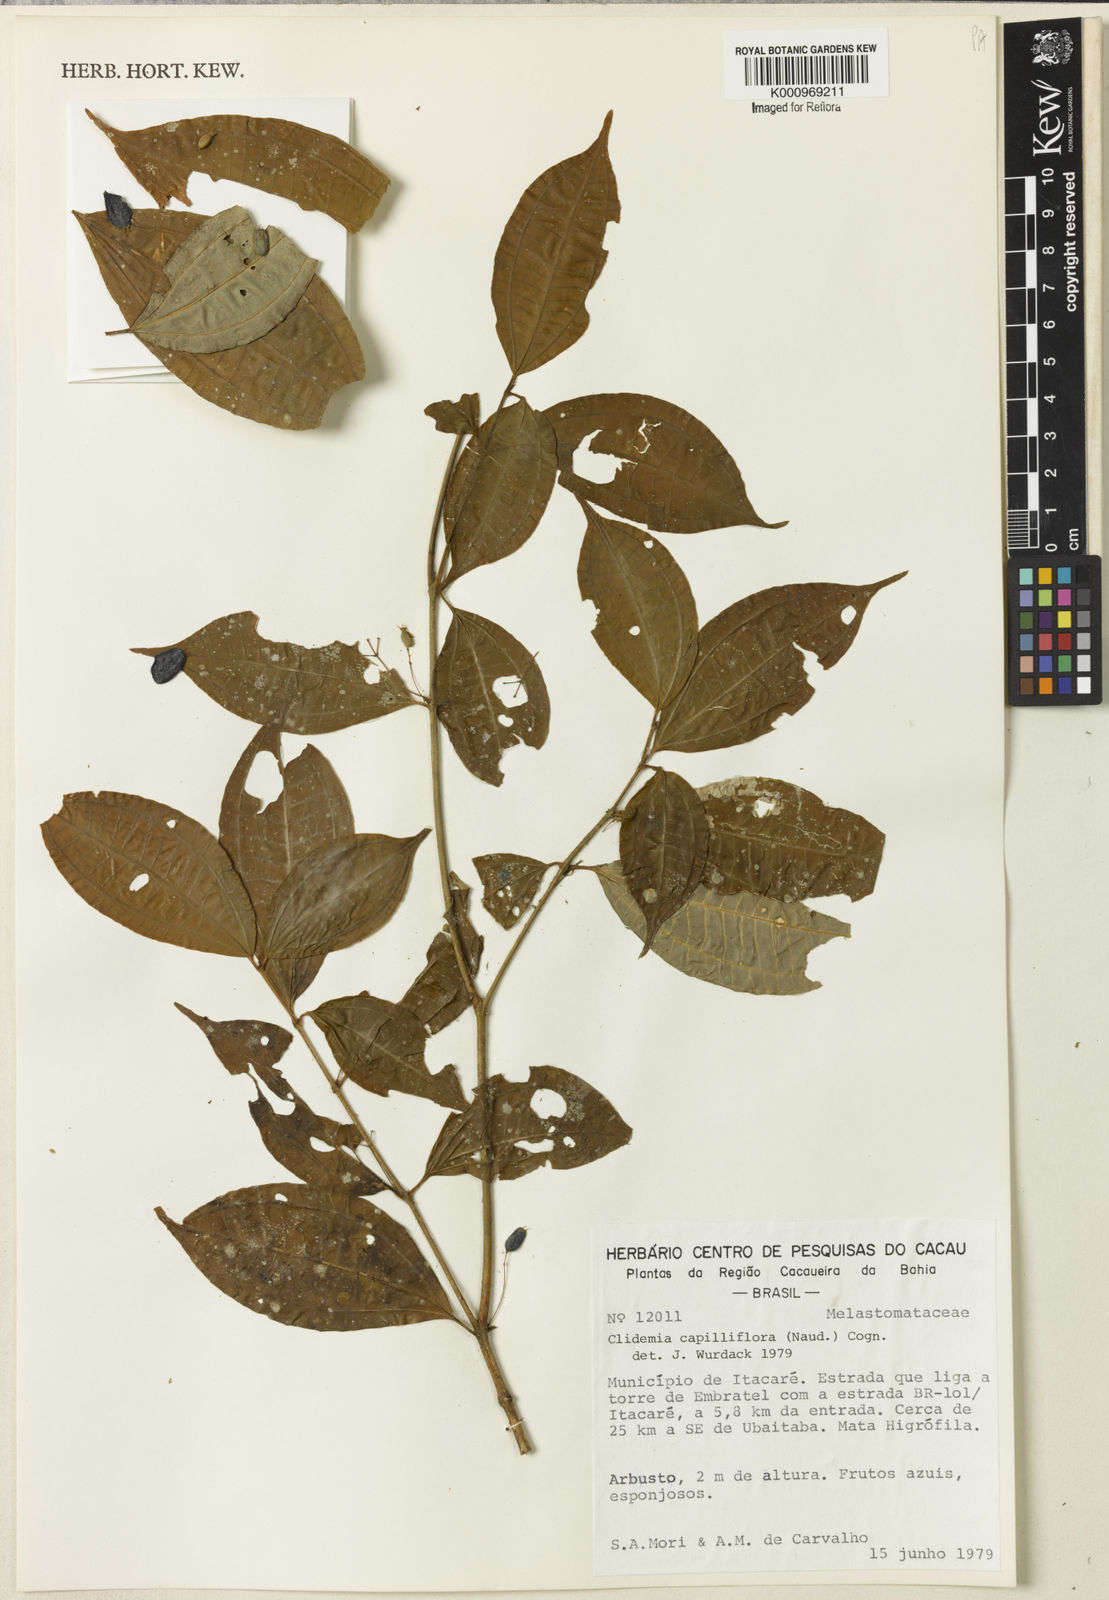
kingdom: Plantae
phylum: Tracheophyta
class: Magnoliopsida
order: Myrtales
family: Melastomataceae
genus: Miconia
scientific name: Miconia capilliflora
